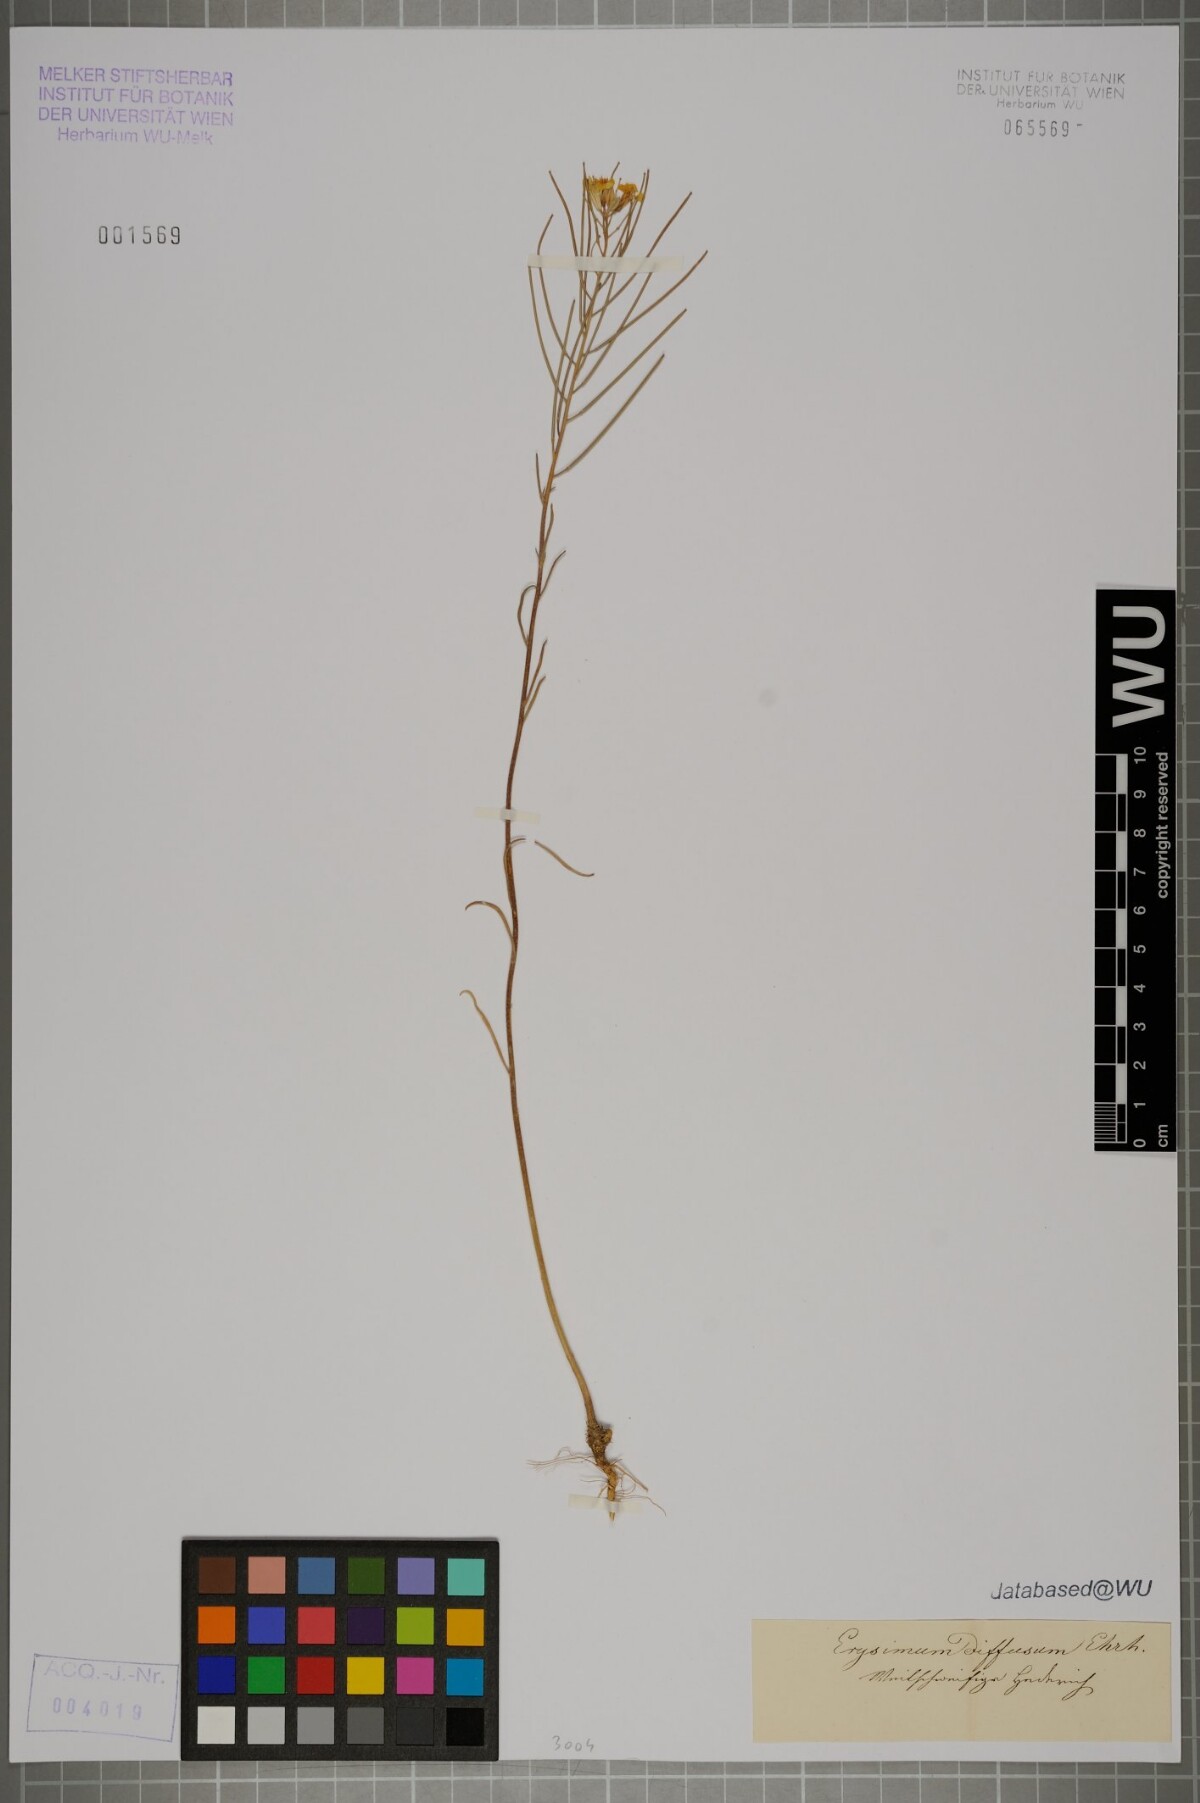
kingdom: Plantae
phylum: Tracheophyta
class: Magnoliopsida
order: Brassicales
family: Brassicaceae
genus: Erysimum
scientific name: Erysimum diffusum
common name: Diffuse wallflower
